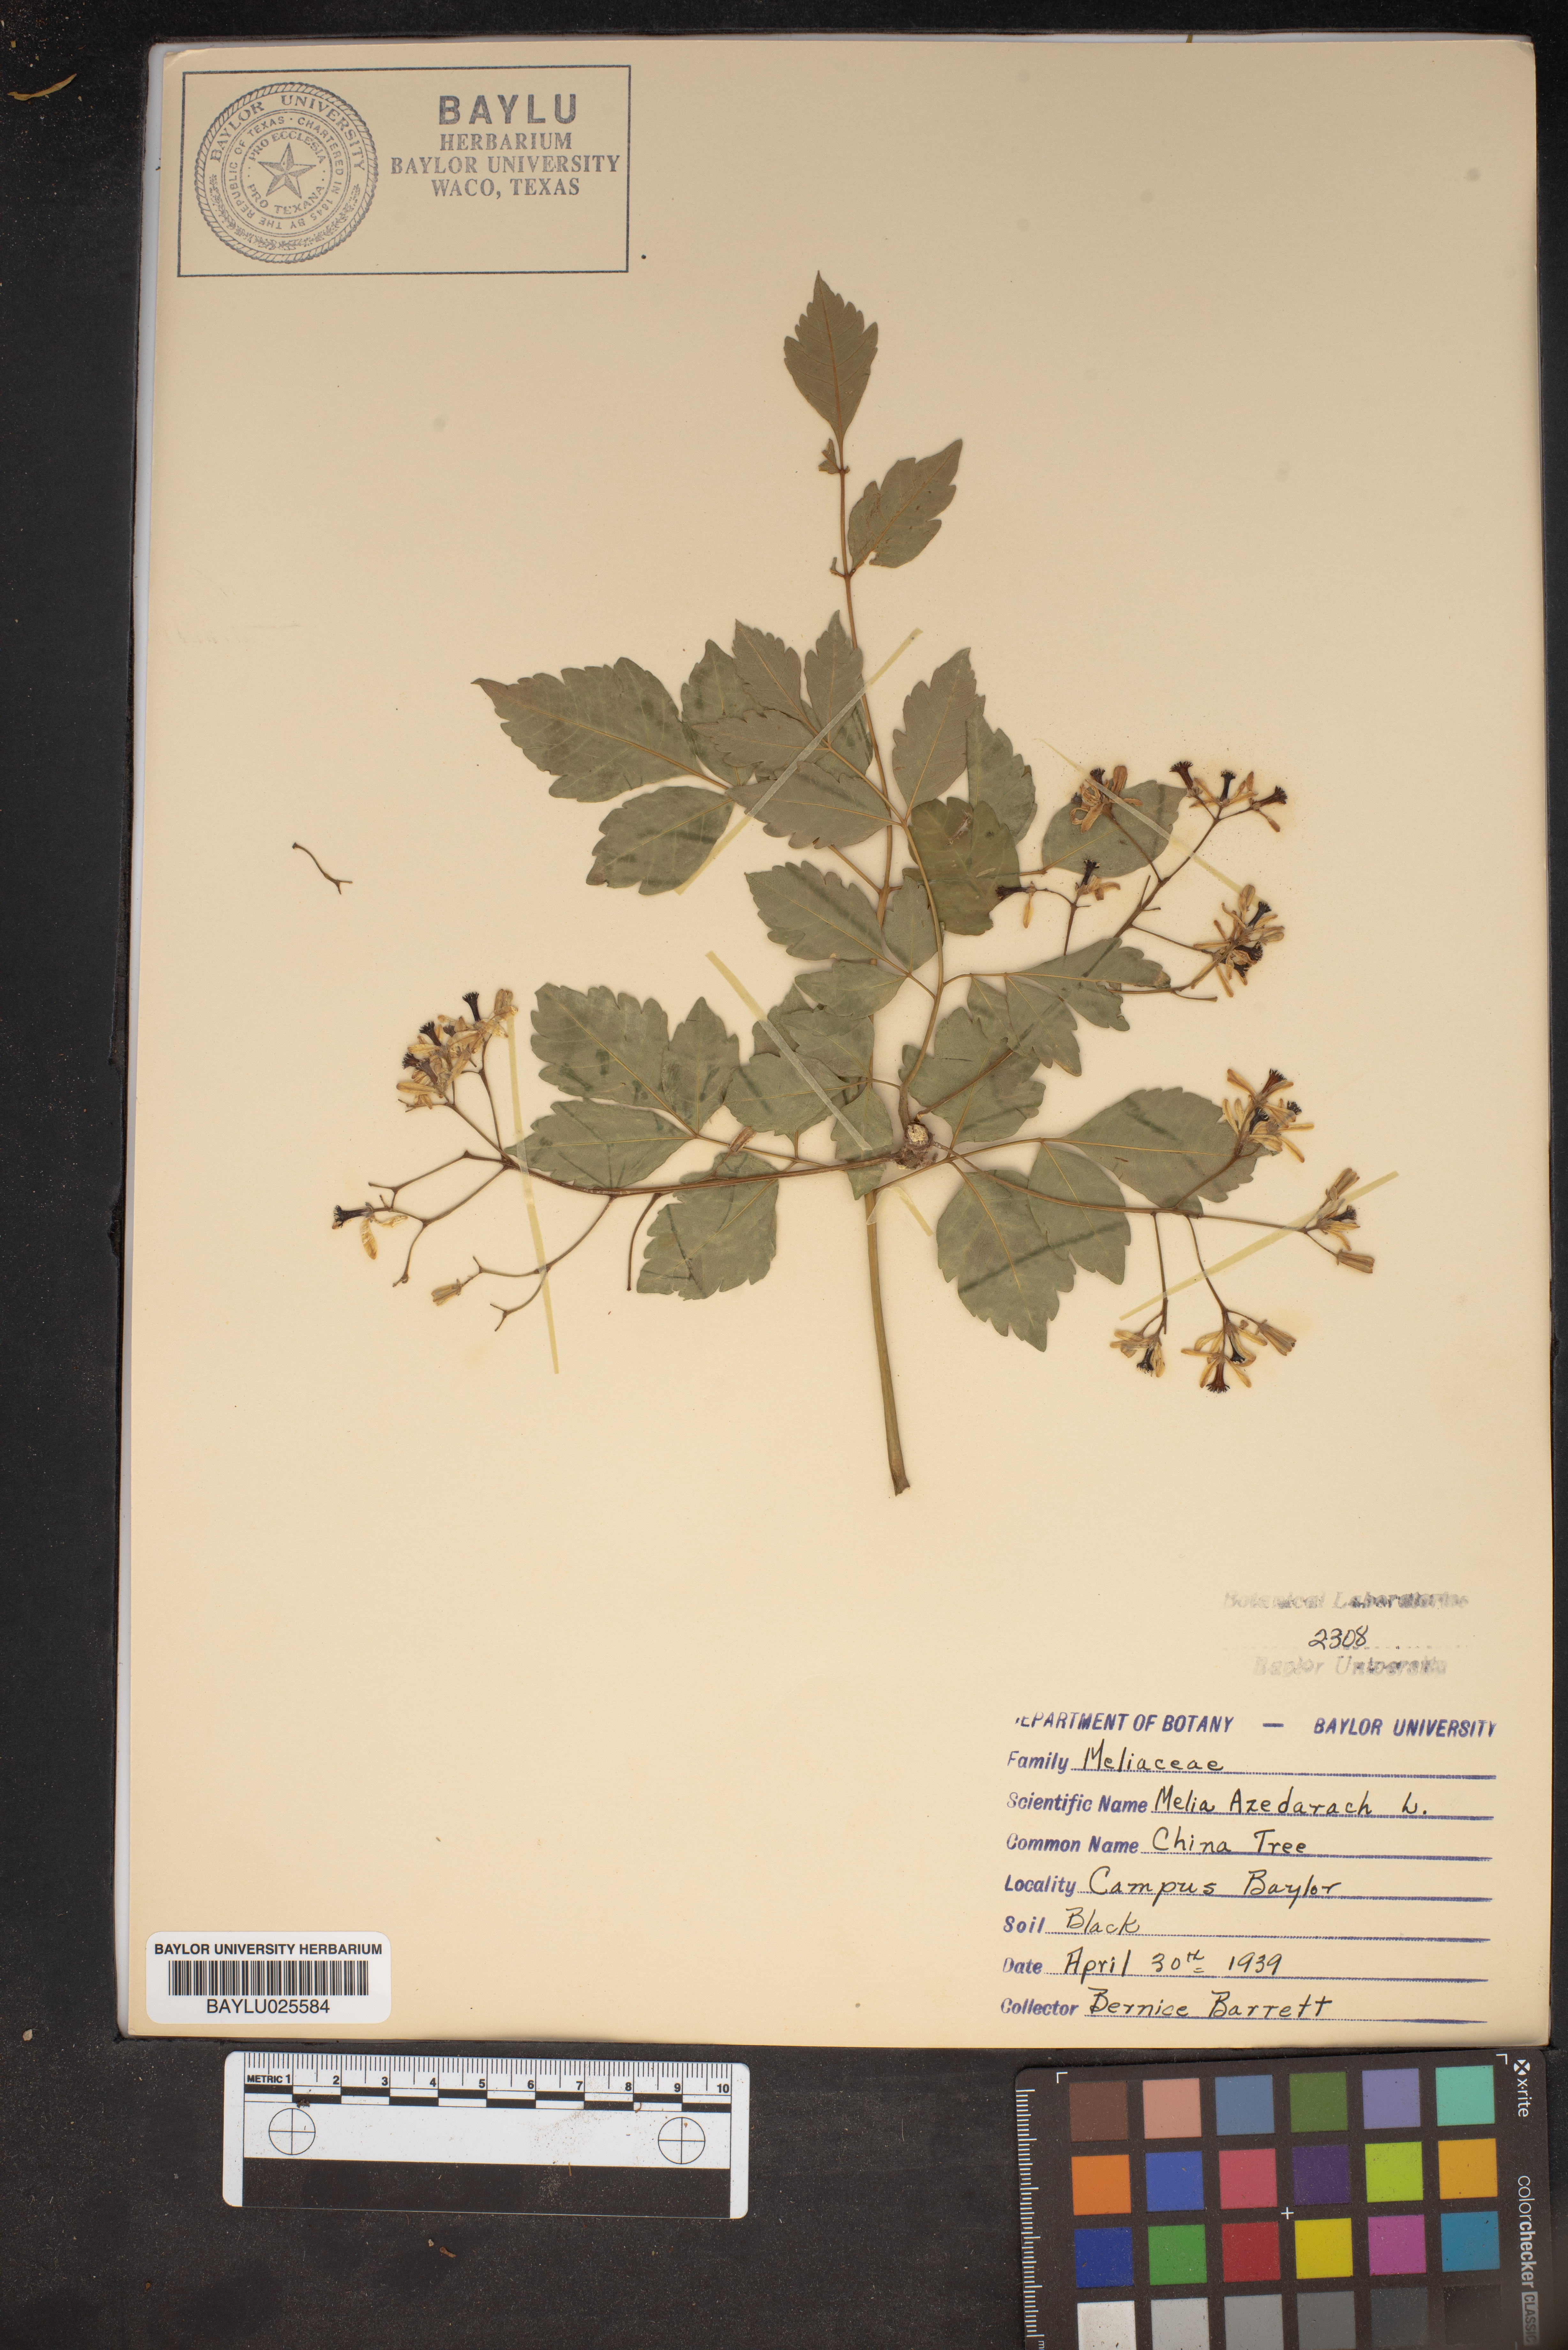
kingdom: Plantae
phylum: Tracheophyta
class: Magnoliopsida
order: Sapindales
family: Meliaceae
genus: Melia
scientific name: Melia azedarach
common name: Chinaberrytree
